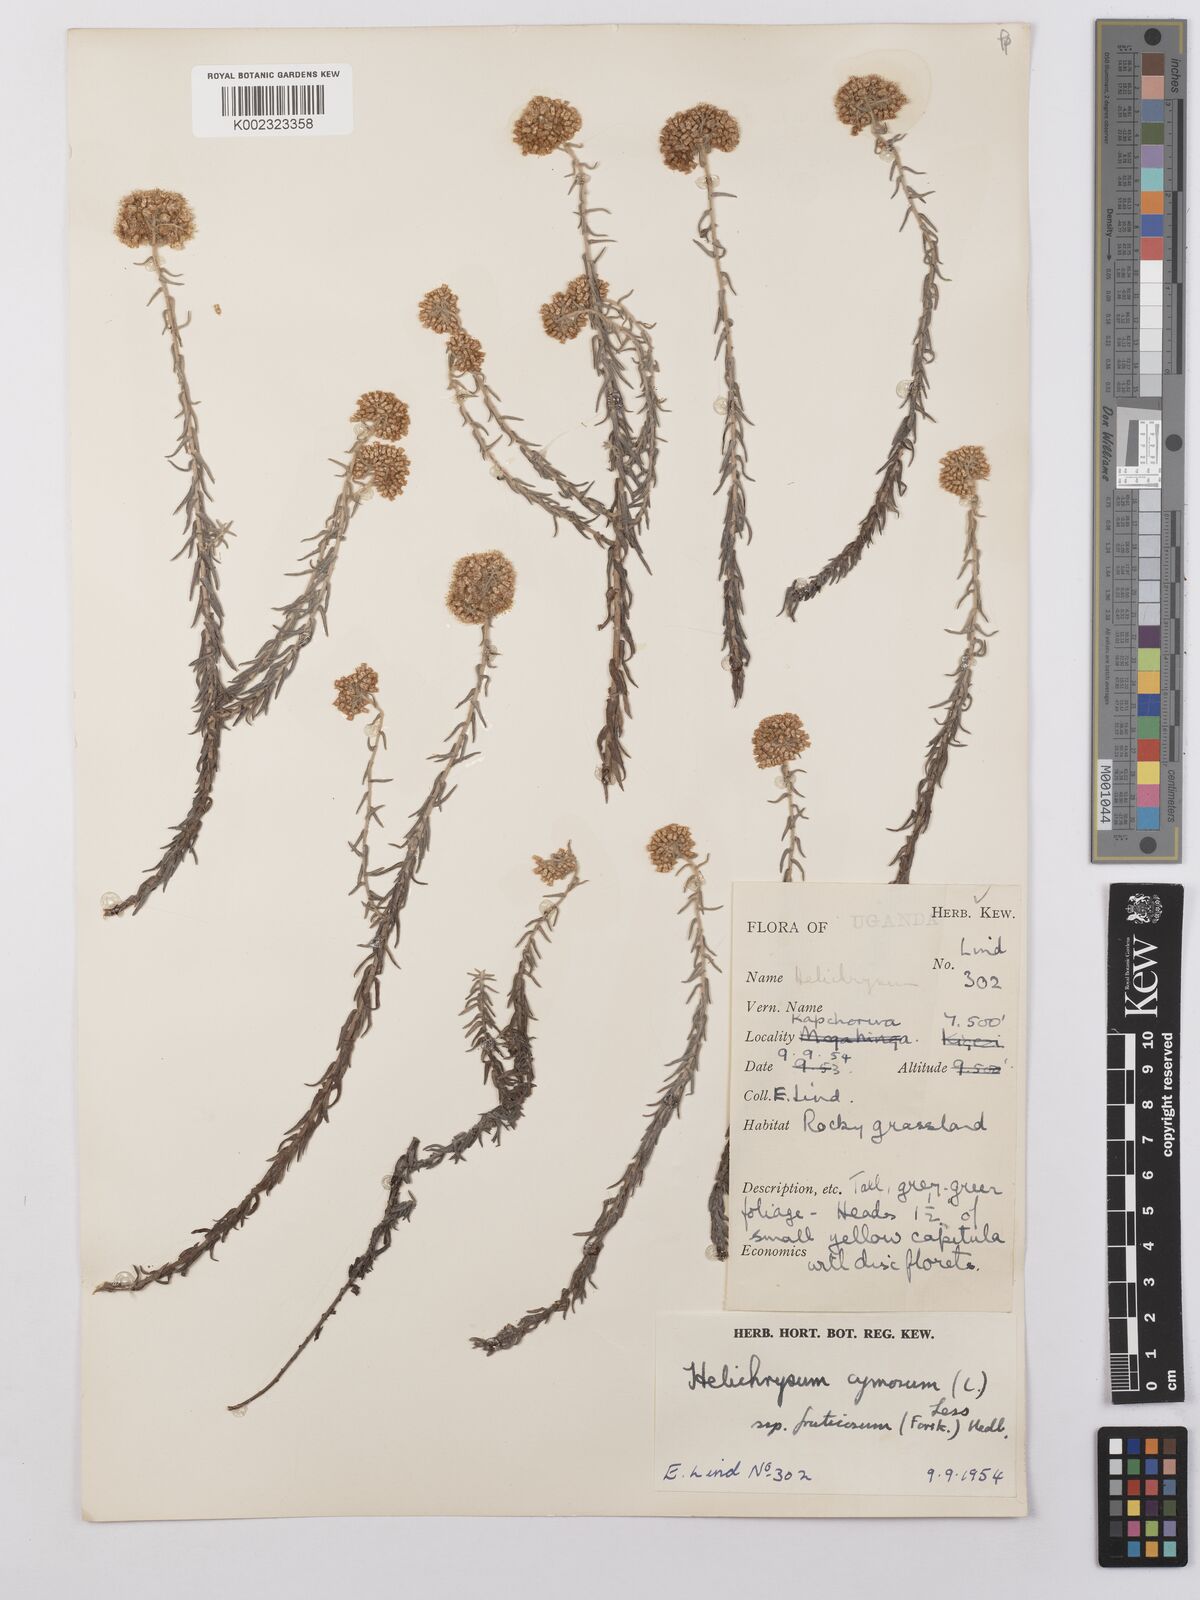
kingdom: Plantae
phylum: Tracheophyta
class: Magnoliopsida
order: Asterales
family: Asteraceae
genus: Helichrysum
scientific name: Helichrysum forskahlii
